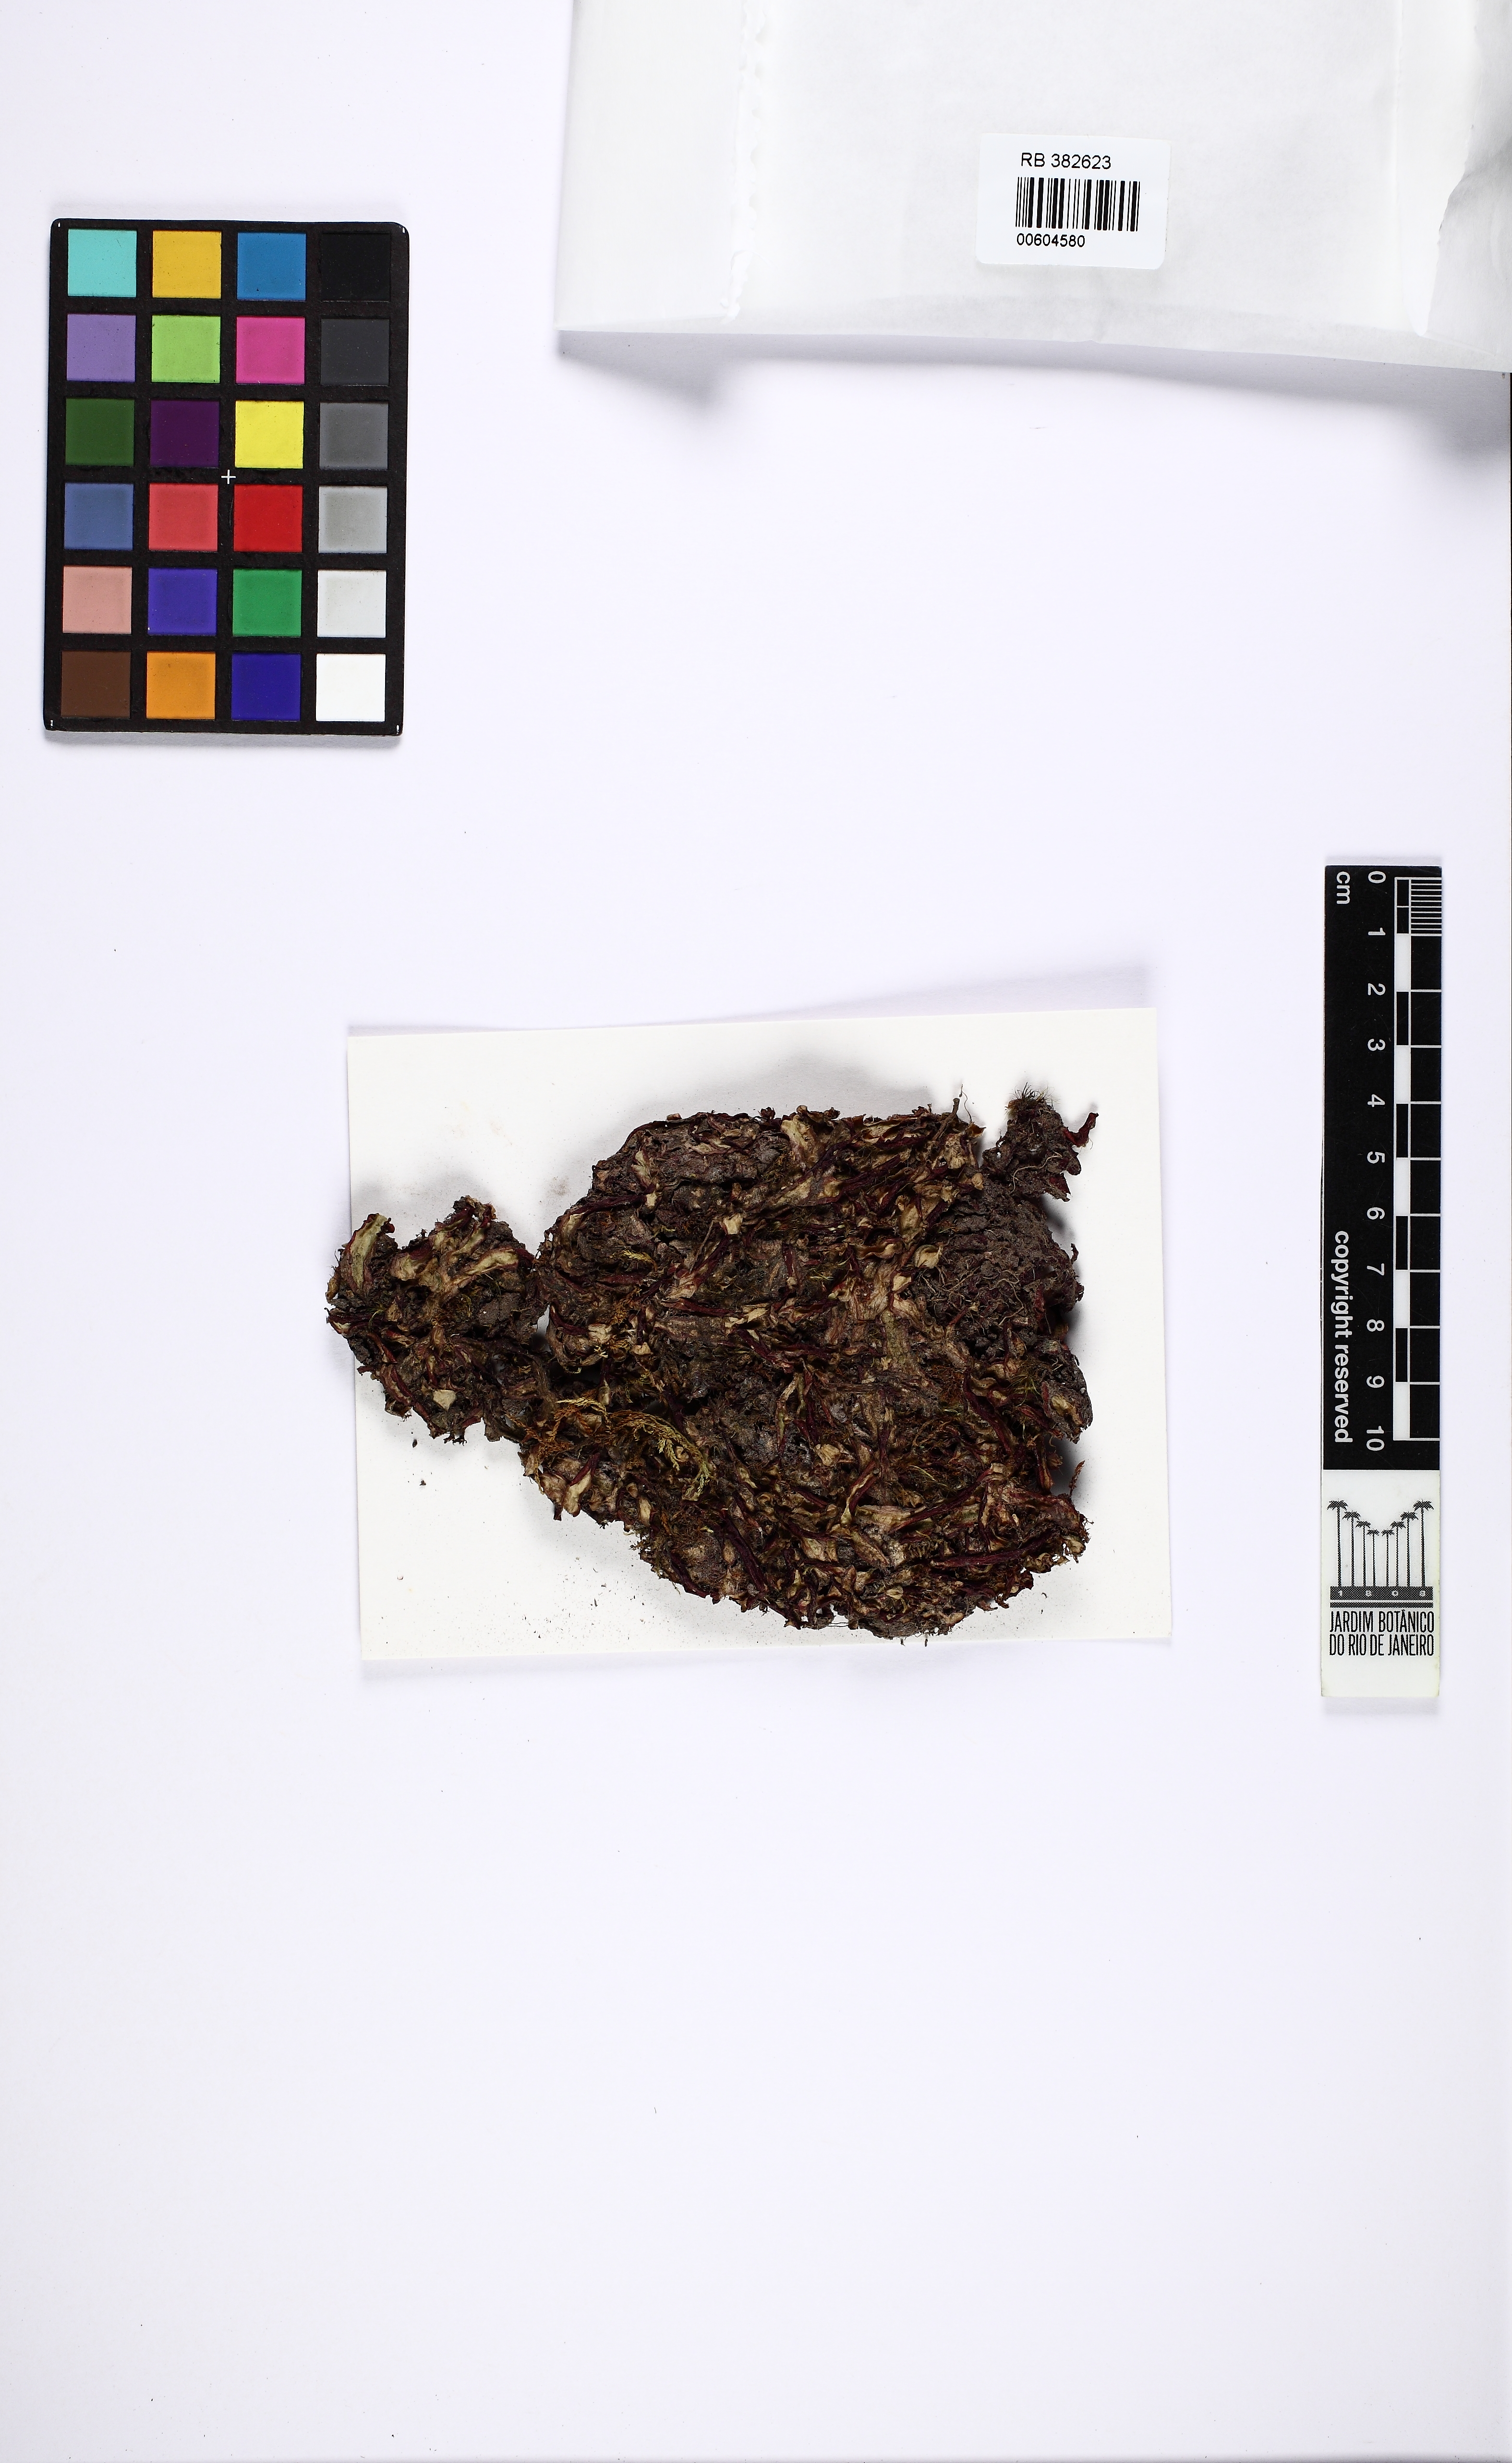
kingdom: Plantae
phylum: Marchantiophyta
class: Marchantiopsida
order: Marchantiales
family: Marchantiaceae
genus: Marchantia
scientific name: Marchantia
